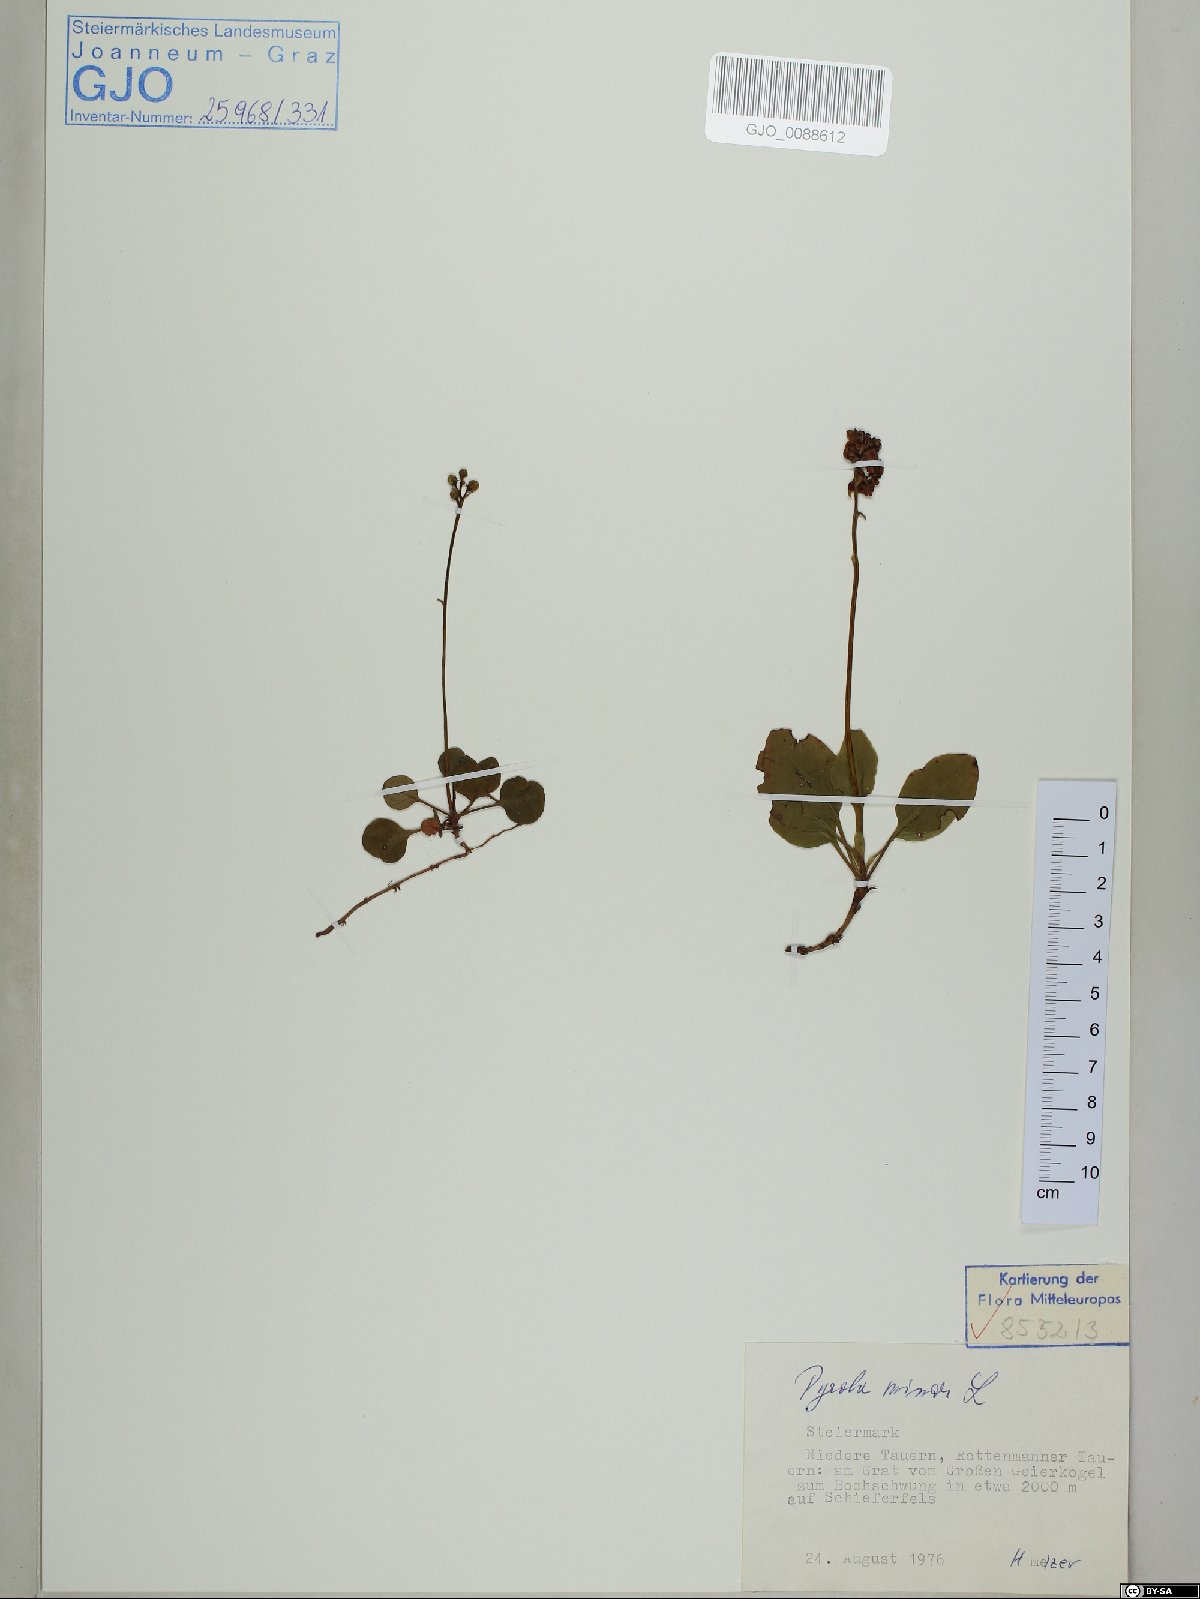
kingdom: Plantae
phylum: Tracheophyta
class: Magnoliopsida
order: Ericales
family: Ericaceae
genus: Pyrola
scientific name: Pyrola minor
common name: Common wintergreen
